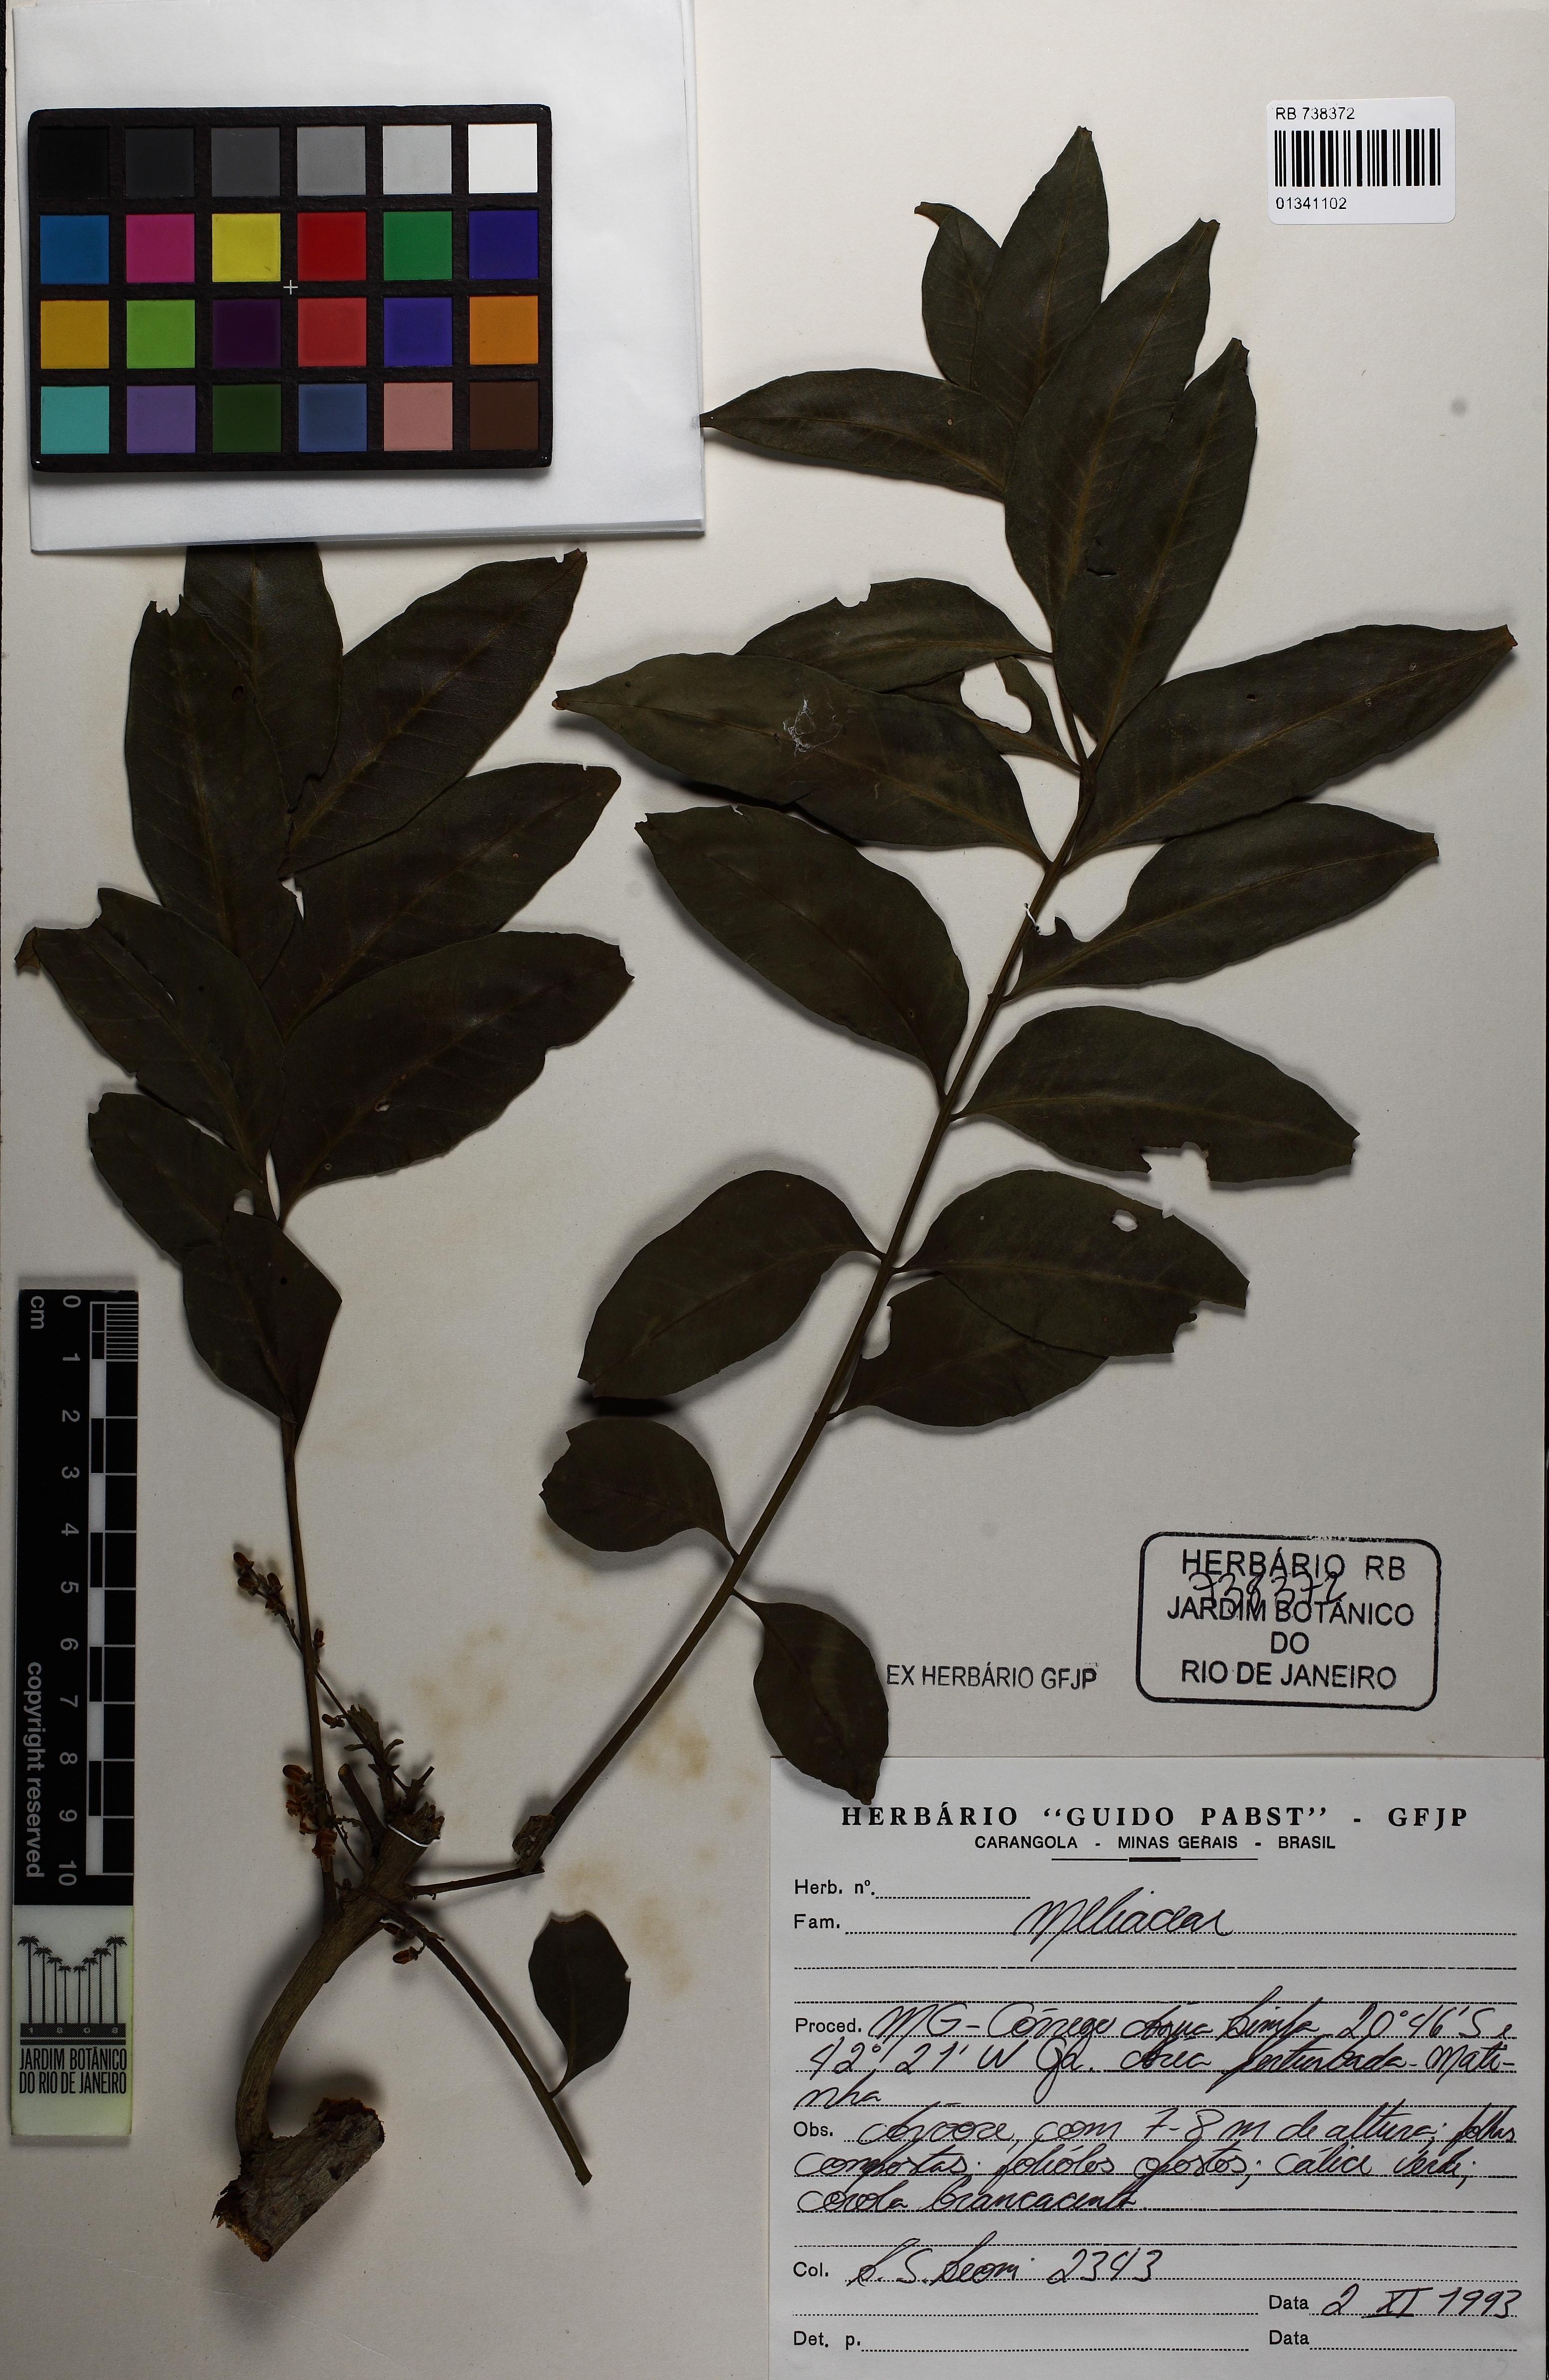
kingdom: Plantae
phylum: Tracheophyta
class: Magnoliopsida
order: Sapindales
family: Meliaceae
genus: Cabralea
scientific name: Cabralea canjerana
